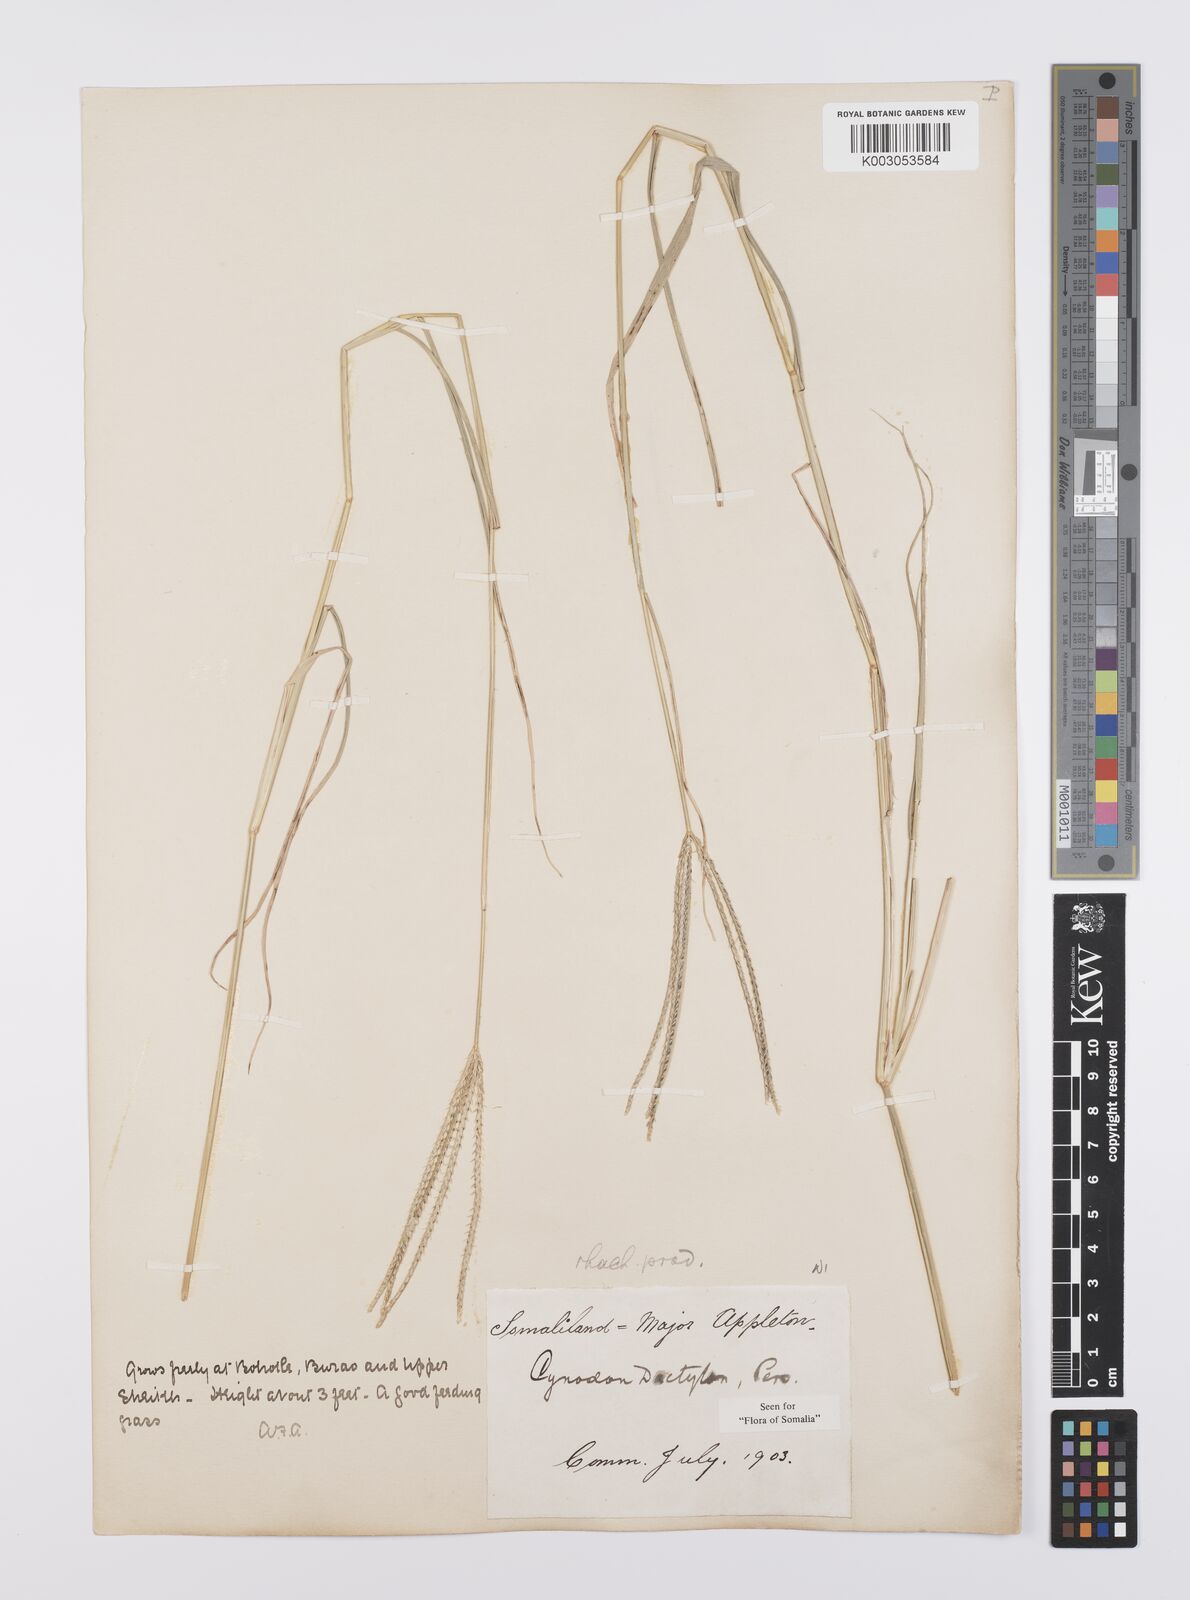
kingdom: Plantae
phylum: Tracheophyta
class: Liliopsida
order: Poales
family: Poaceae
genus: Cynodon
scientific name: Cynodon dactylon
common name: Bermuda grass
